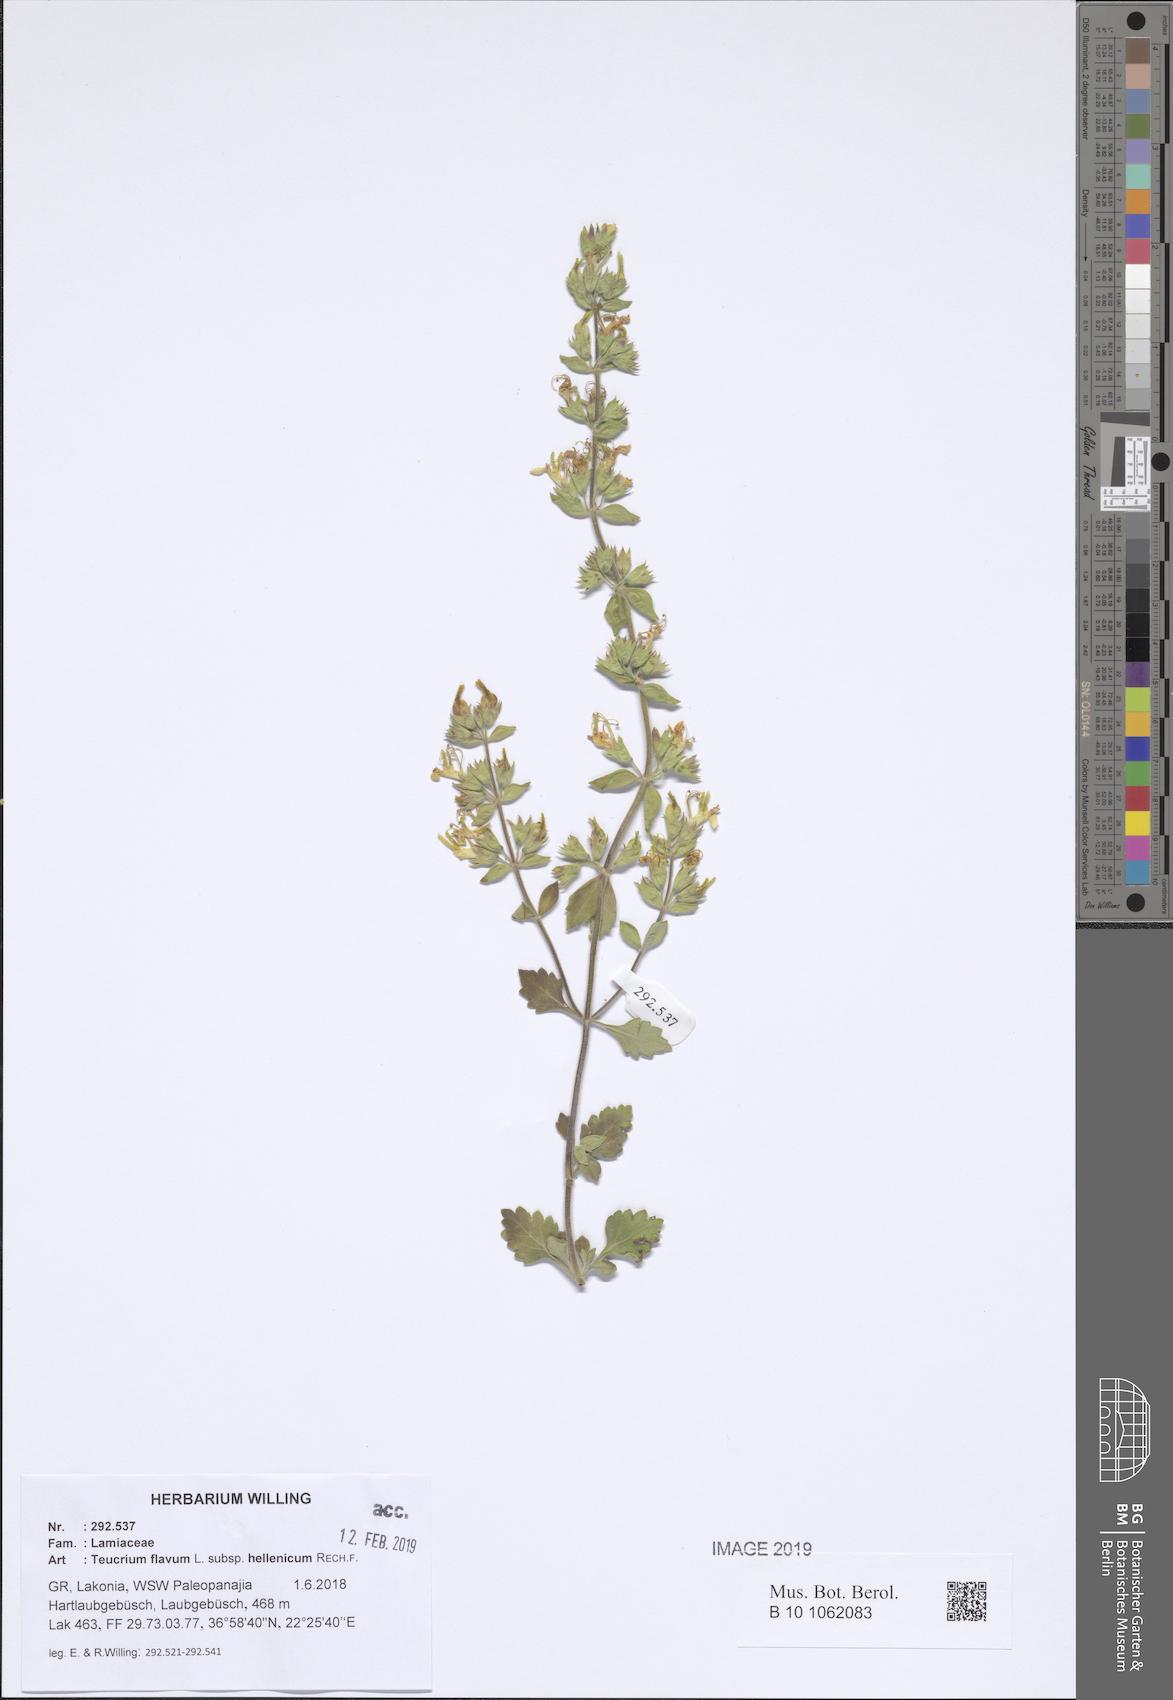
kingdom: Plantae
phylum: Tracheophyta
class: Magnoliopsida
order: Lamiales
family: Lamiaceae
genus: Teucrium
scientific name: Teucrium flavum
